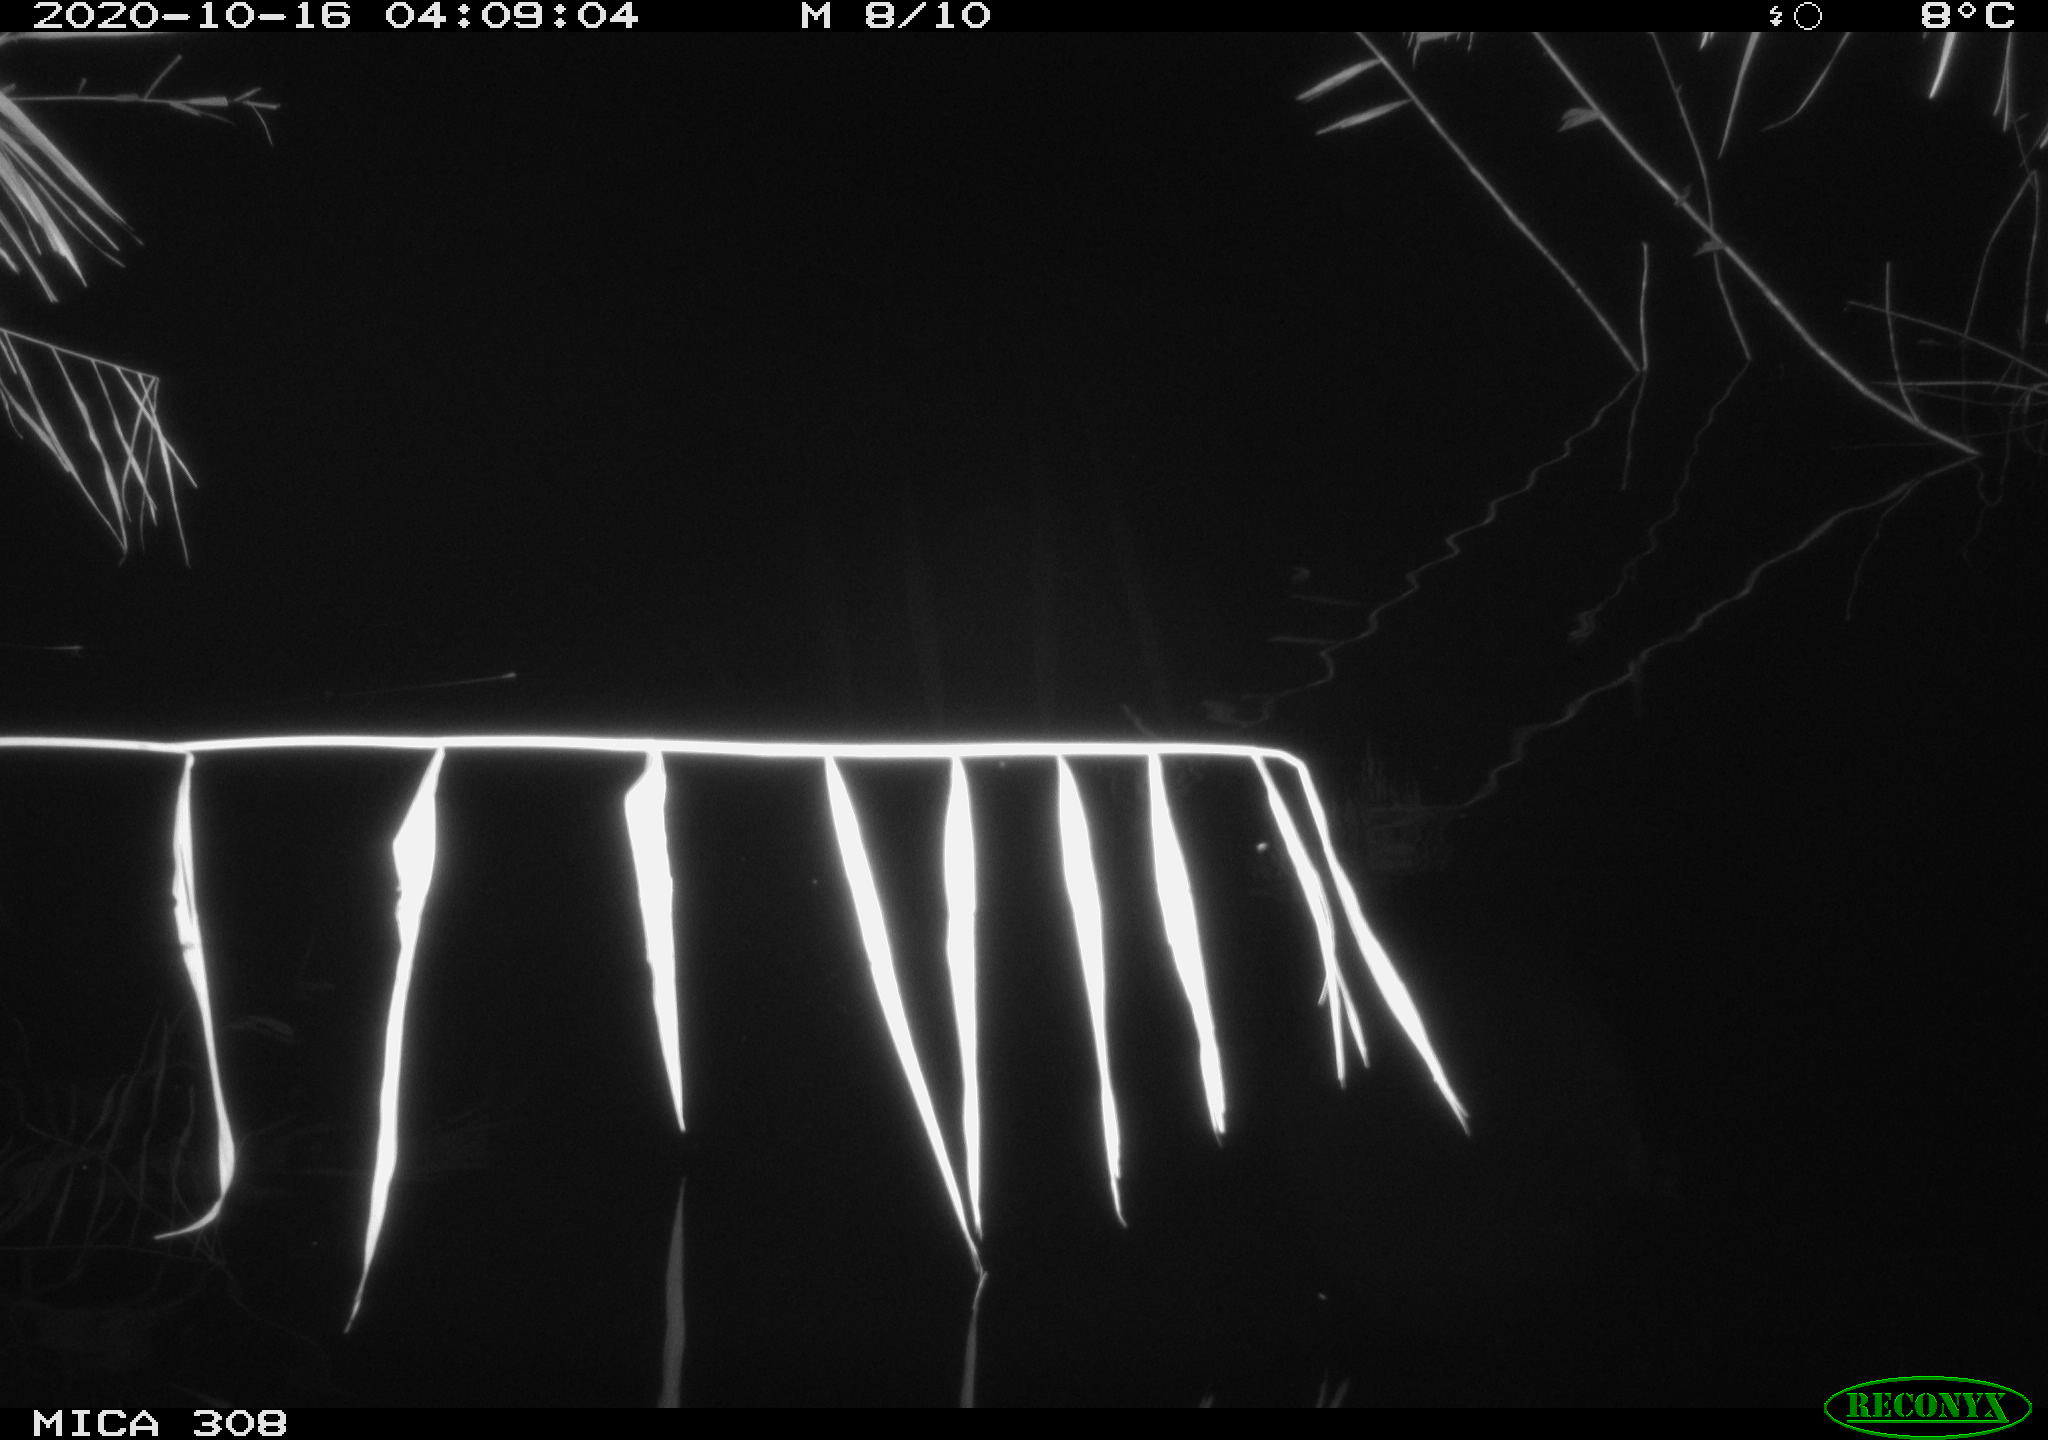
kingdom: Animalia
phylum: Chordata
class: Aves
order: Anseriformes
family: Anatidae
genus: Anas
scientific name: Anas platyrhynchos
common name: Mallard
